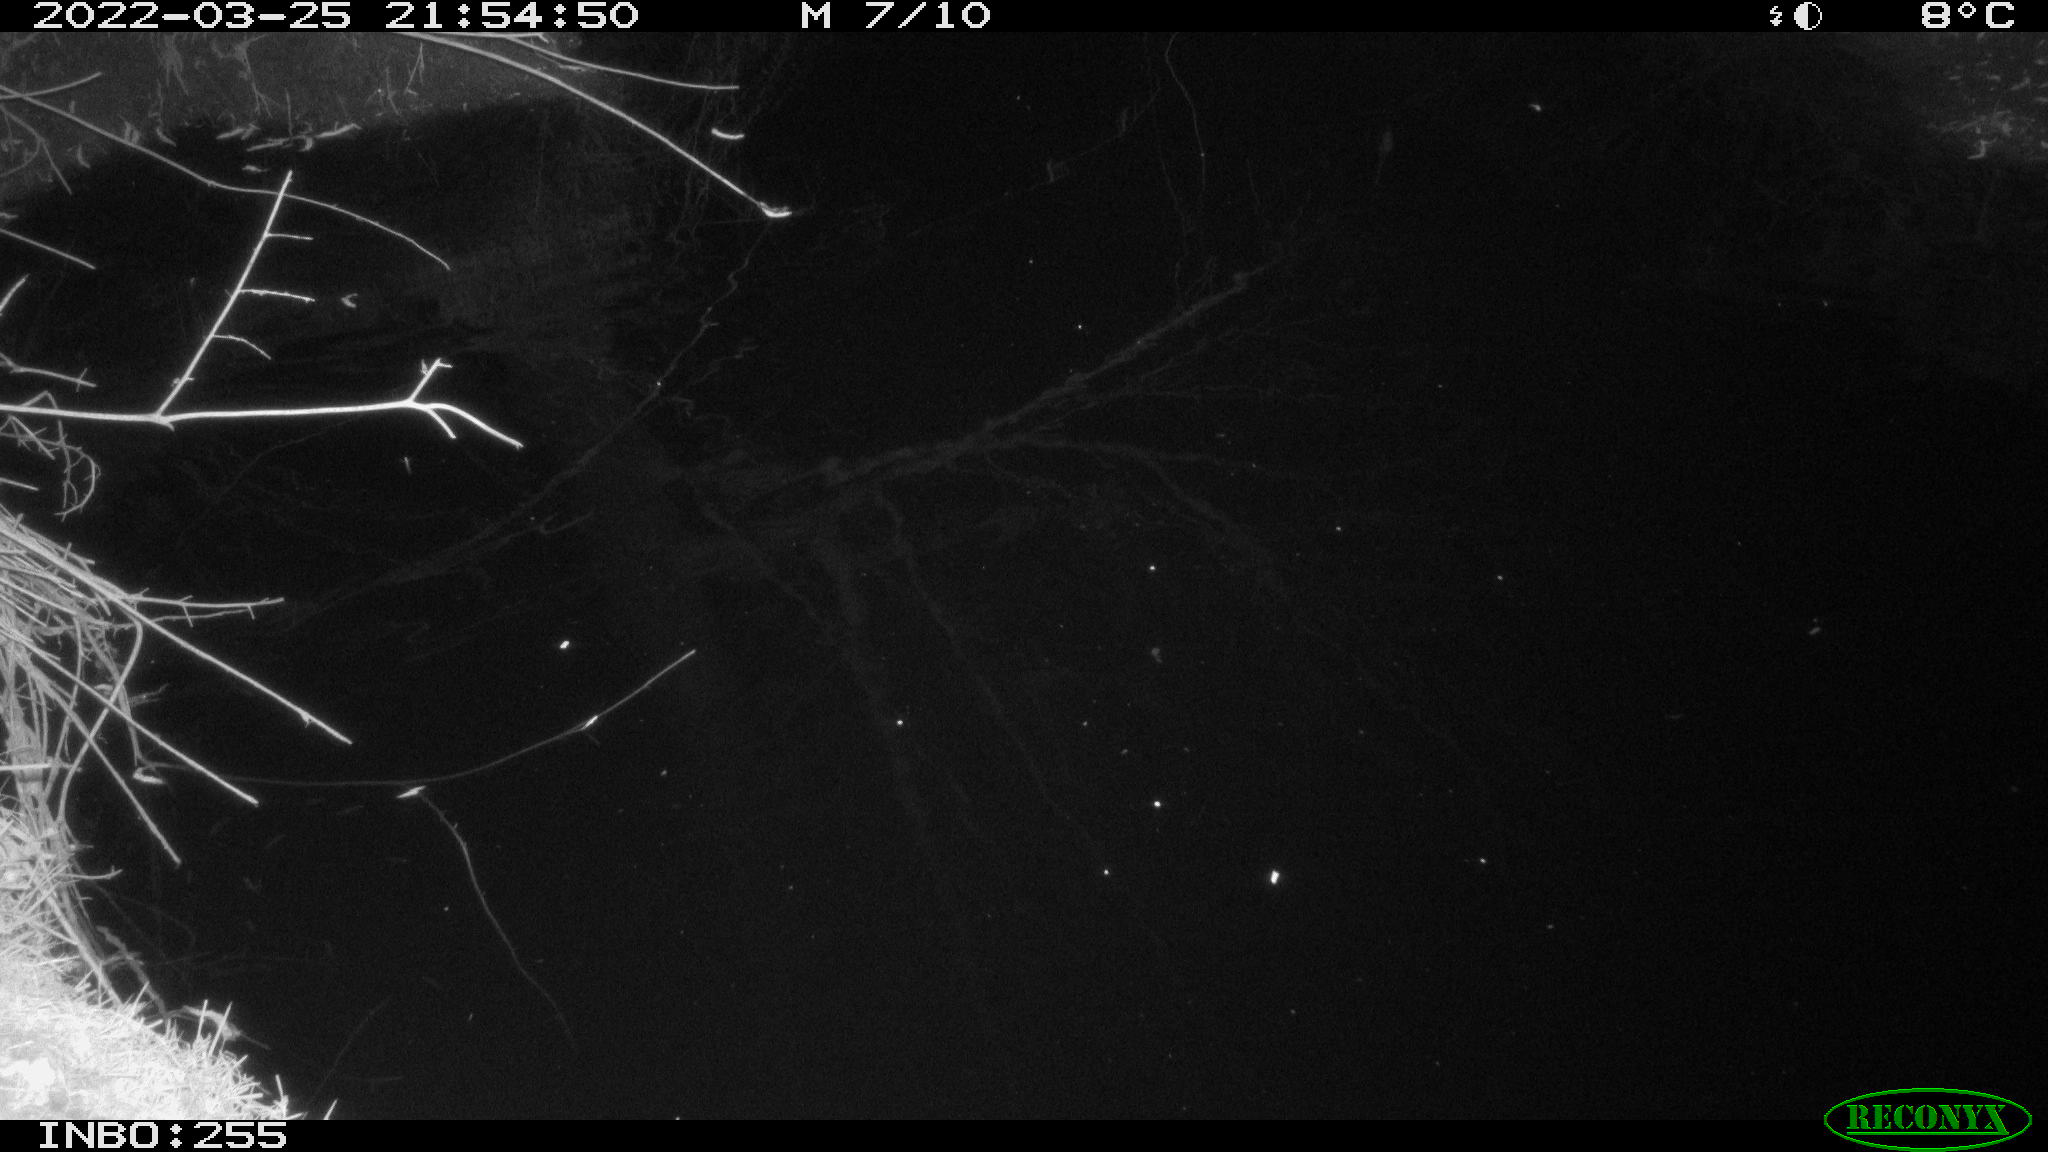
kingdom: Animalia
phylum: Chordata
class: Mammalia
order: Rodentia
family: Muridae
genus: Rattus
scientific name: Rattus norvegicus
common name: Brown rat
